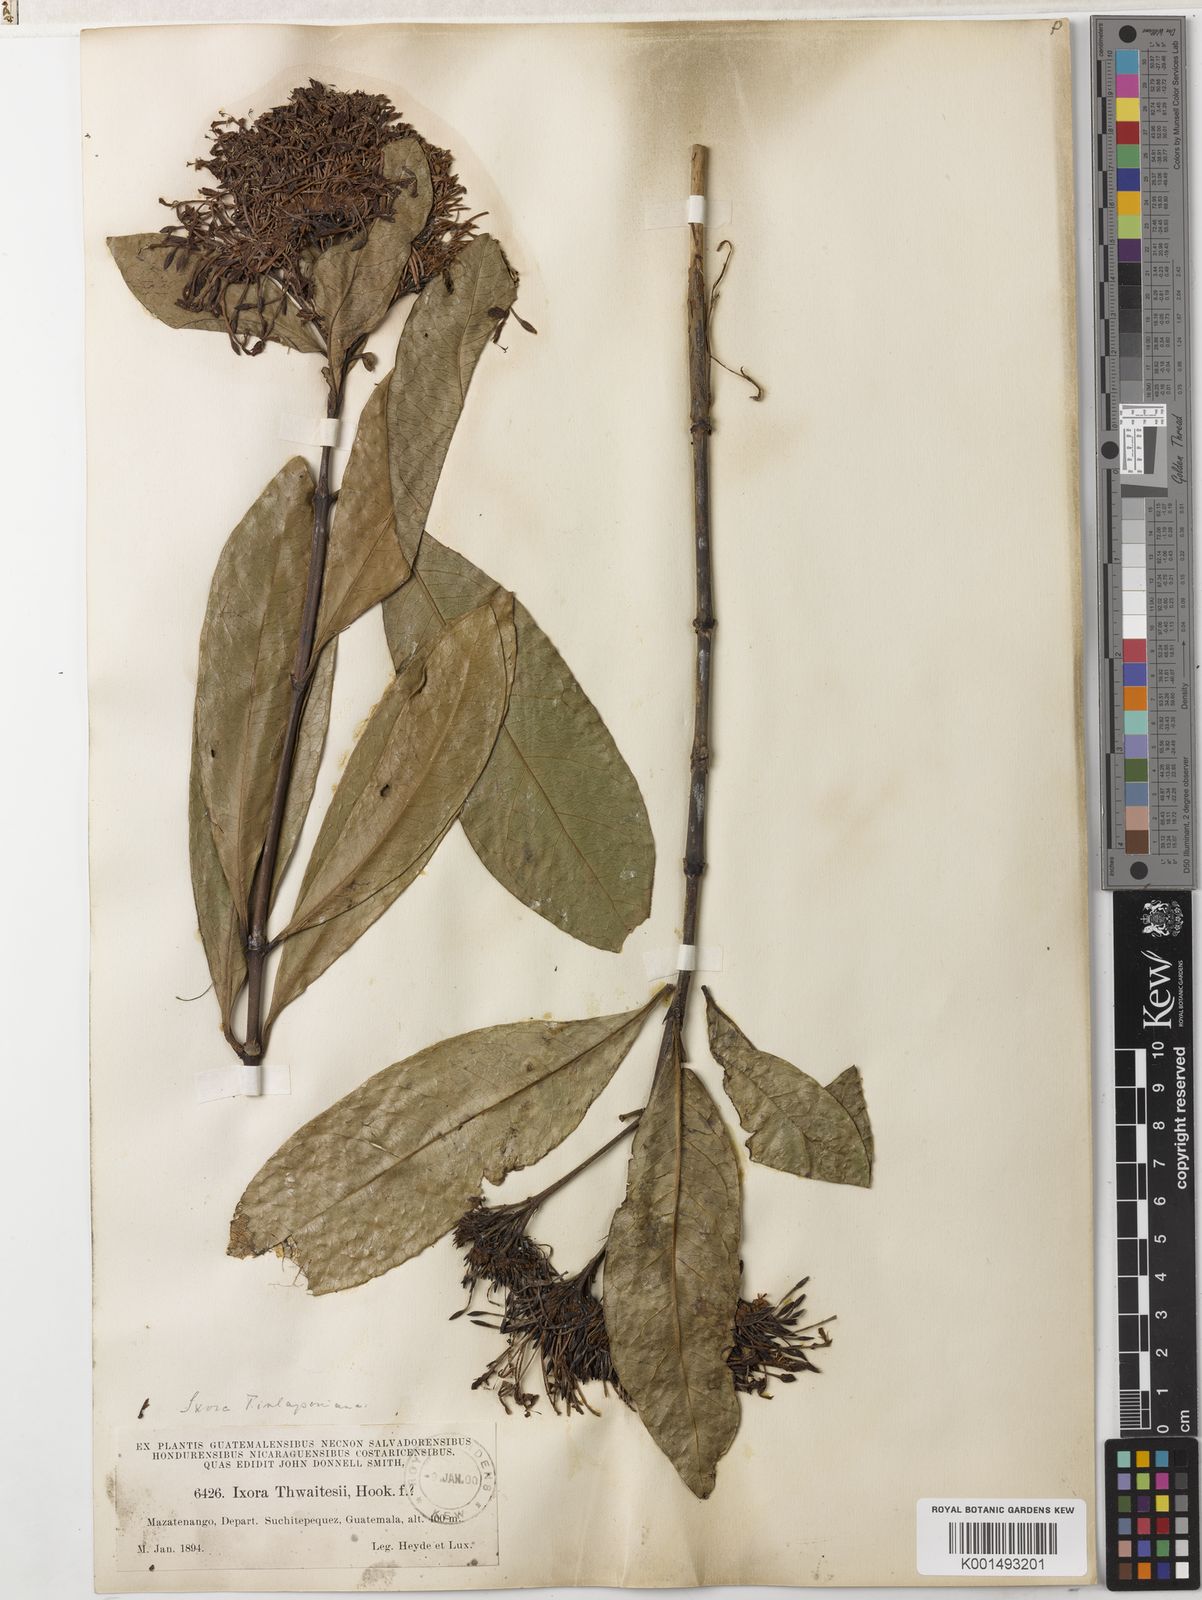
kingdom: Plantae
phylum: Tracheophyta
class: Magnoliopsida
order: Gentianales
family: Rubiaceae
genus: Ixora
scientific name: Ixora finlaysoniana
